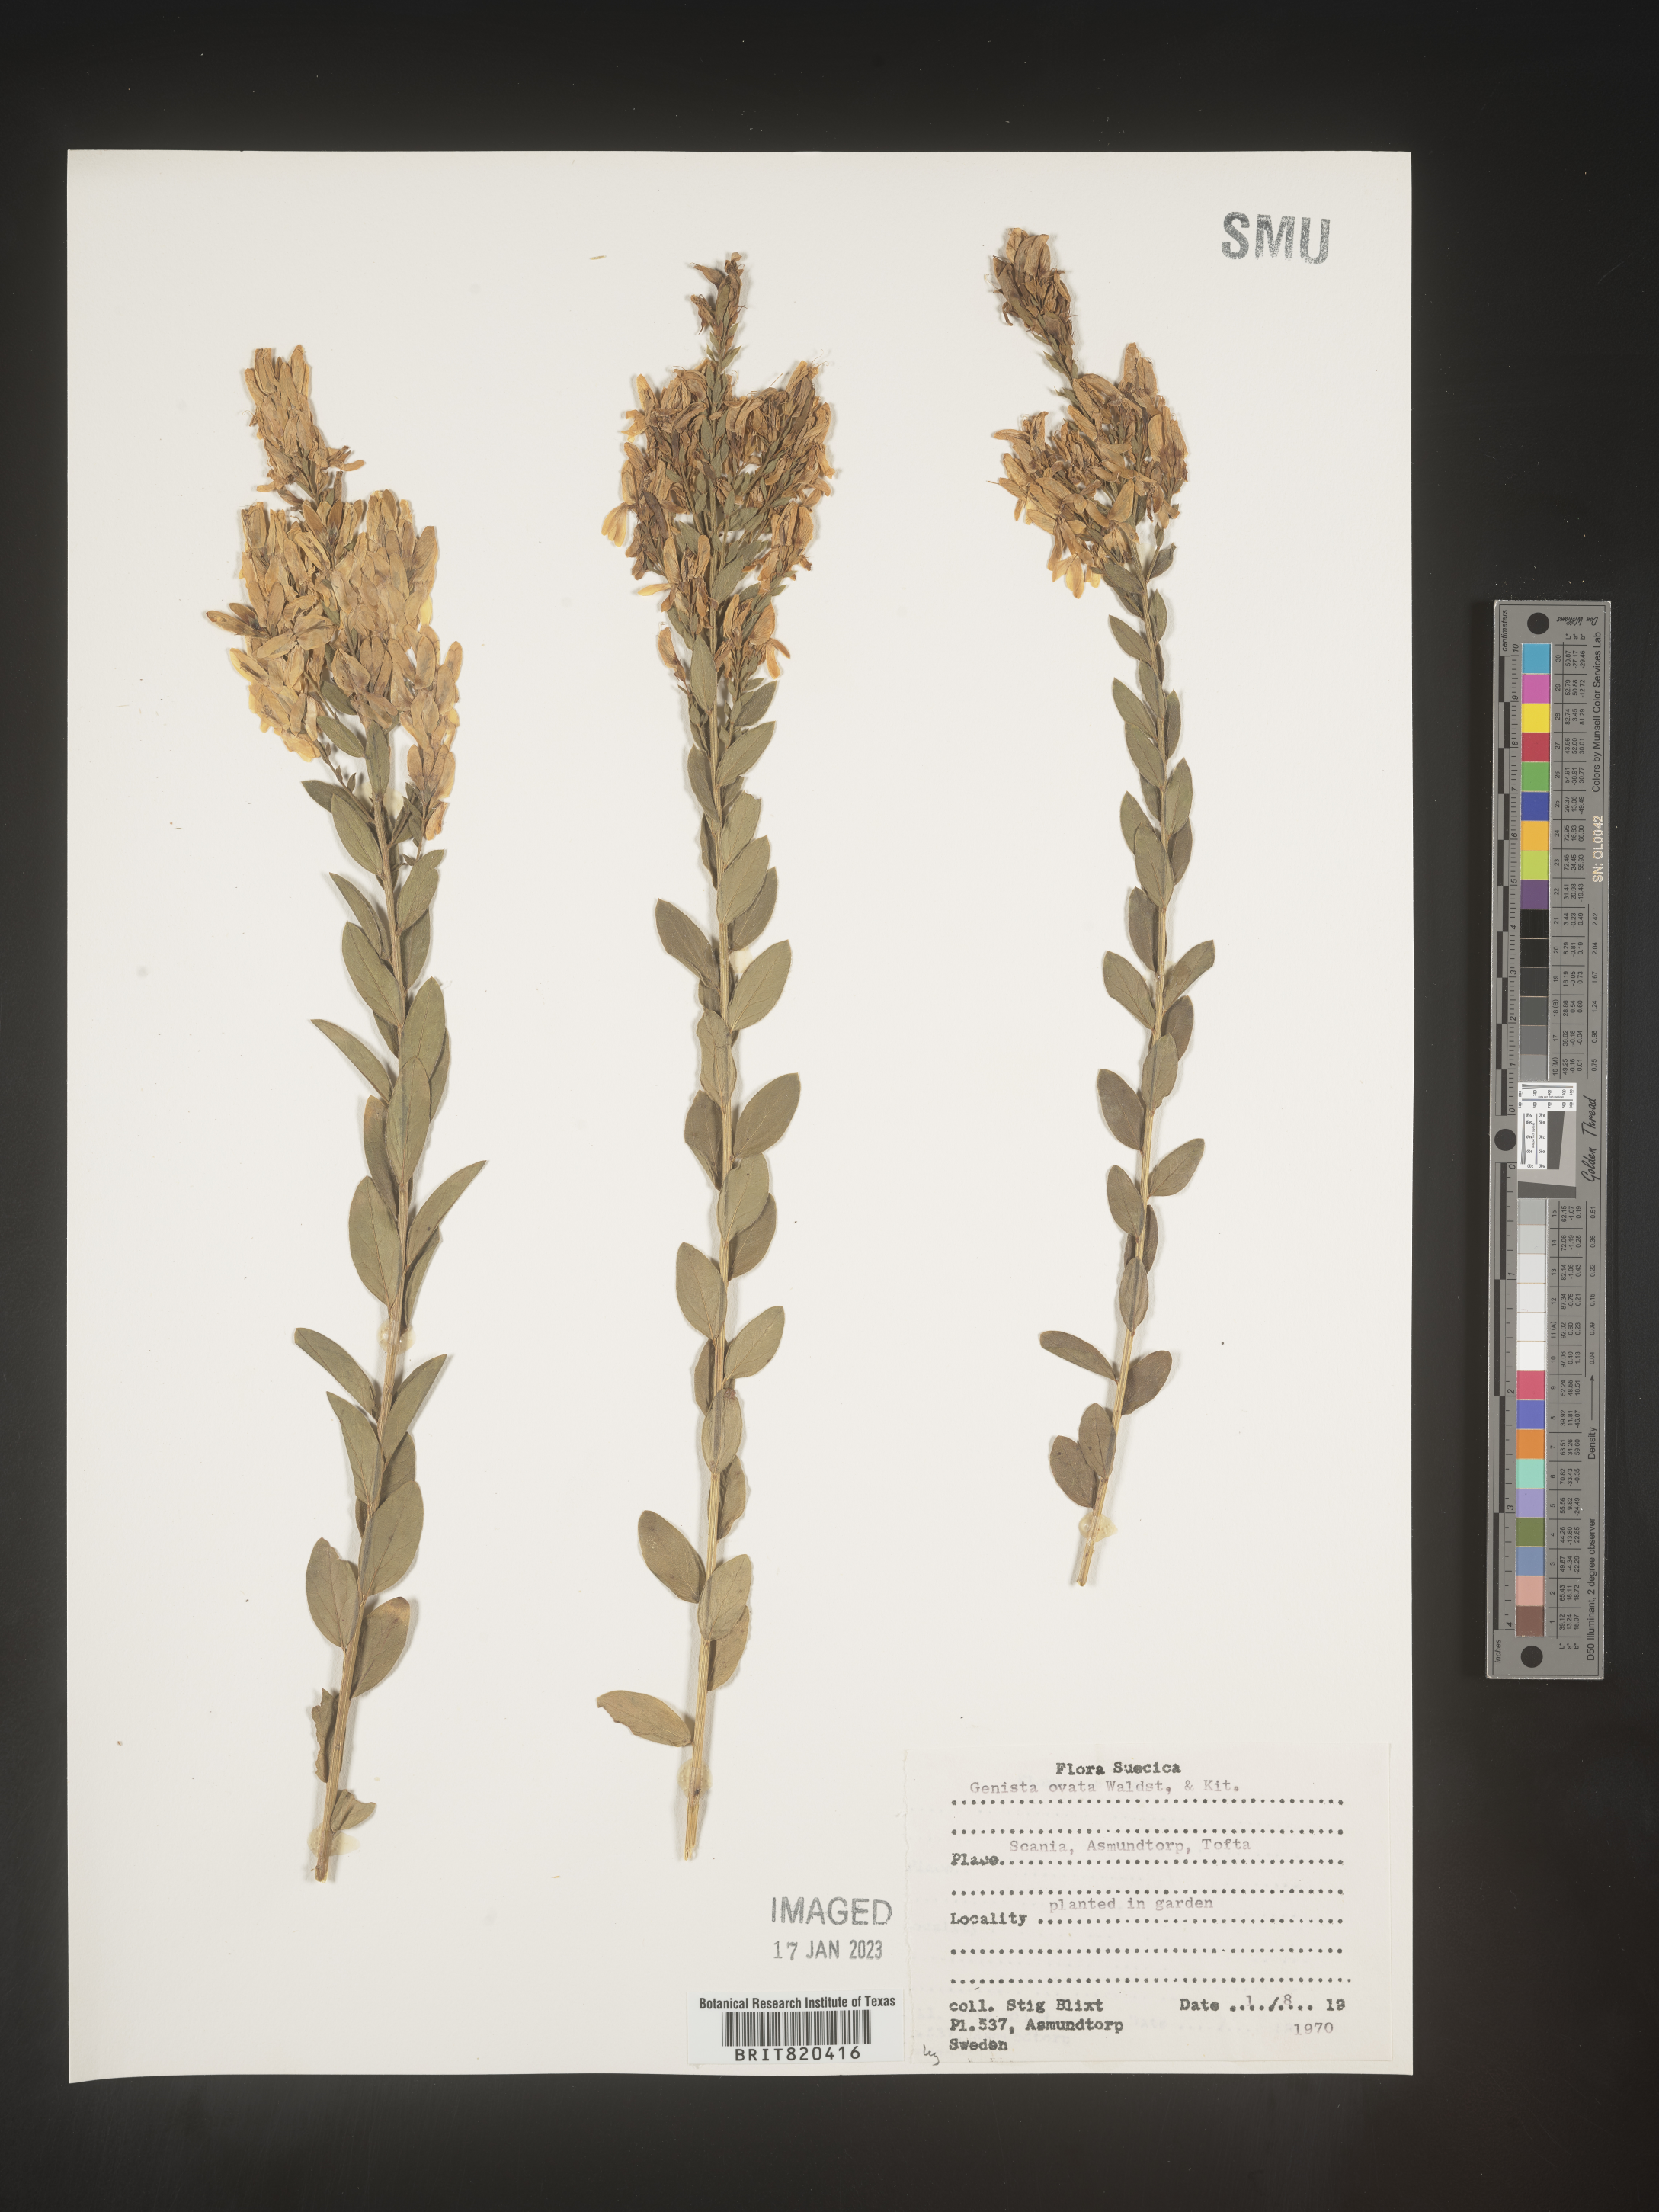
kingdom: Plantae
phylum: Tracheophyta
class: Magnoliopsida
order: Fabales
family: Fabaceae
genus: Genista
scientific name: Genista
